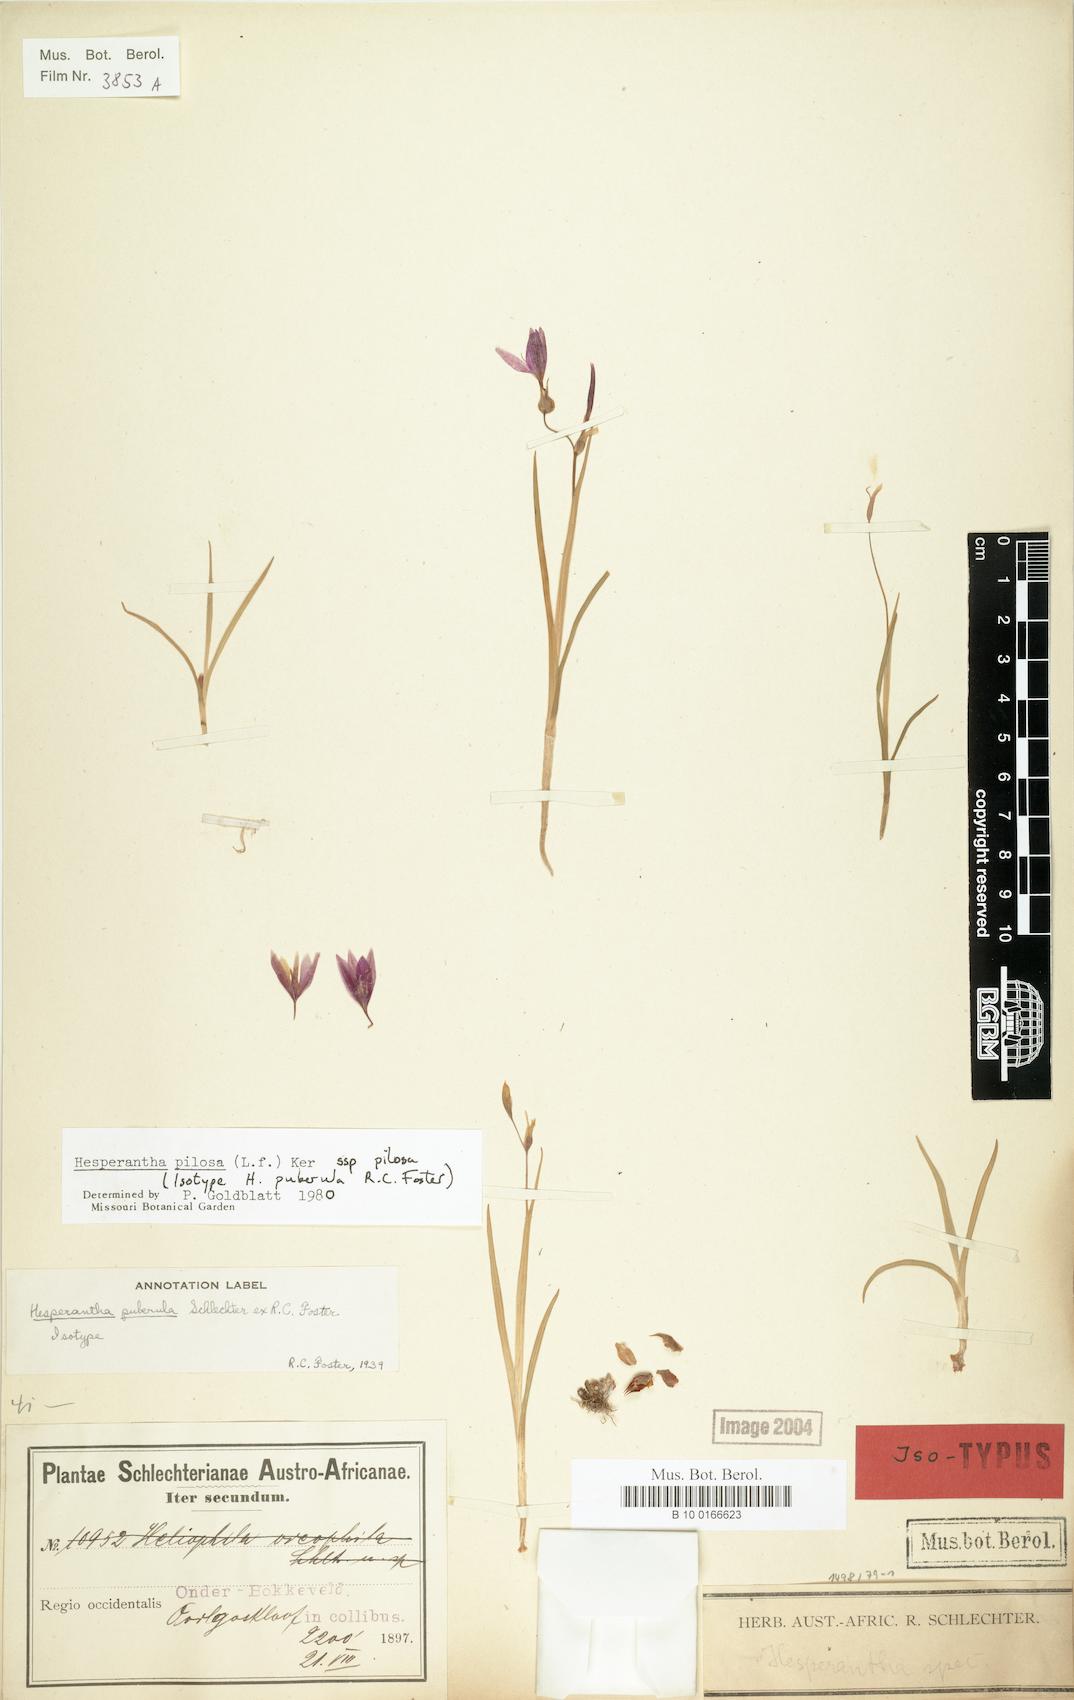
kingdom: Plantae
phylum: Tracheophyta
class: Liliopsida
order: Asparagales
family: Iridaceae
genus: Hesperantha
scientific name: Hesperantha pilosa
